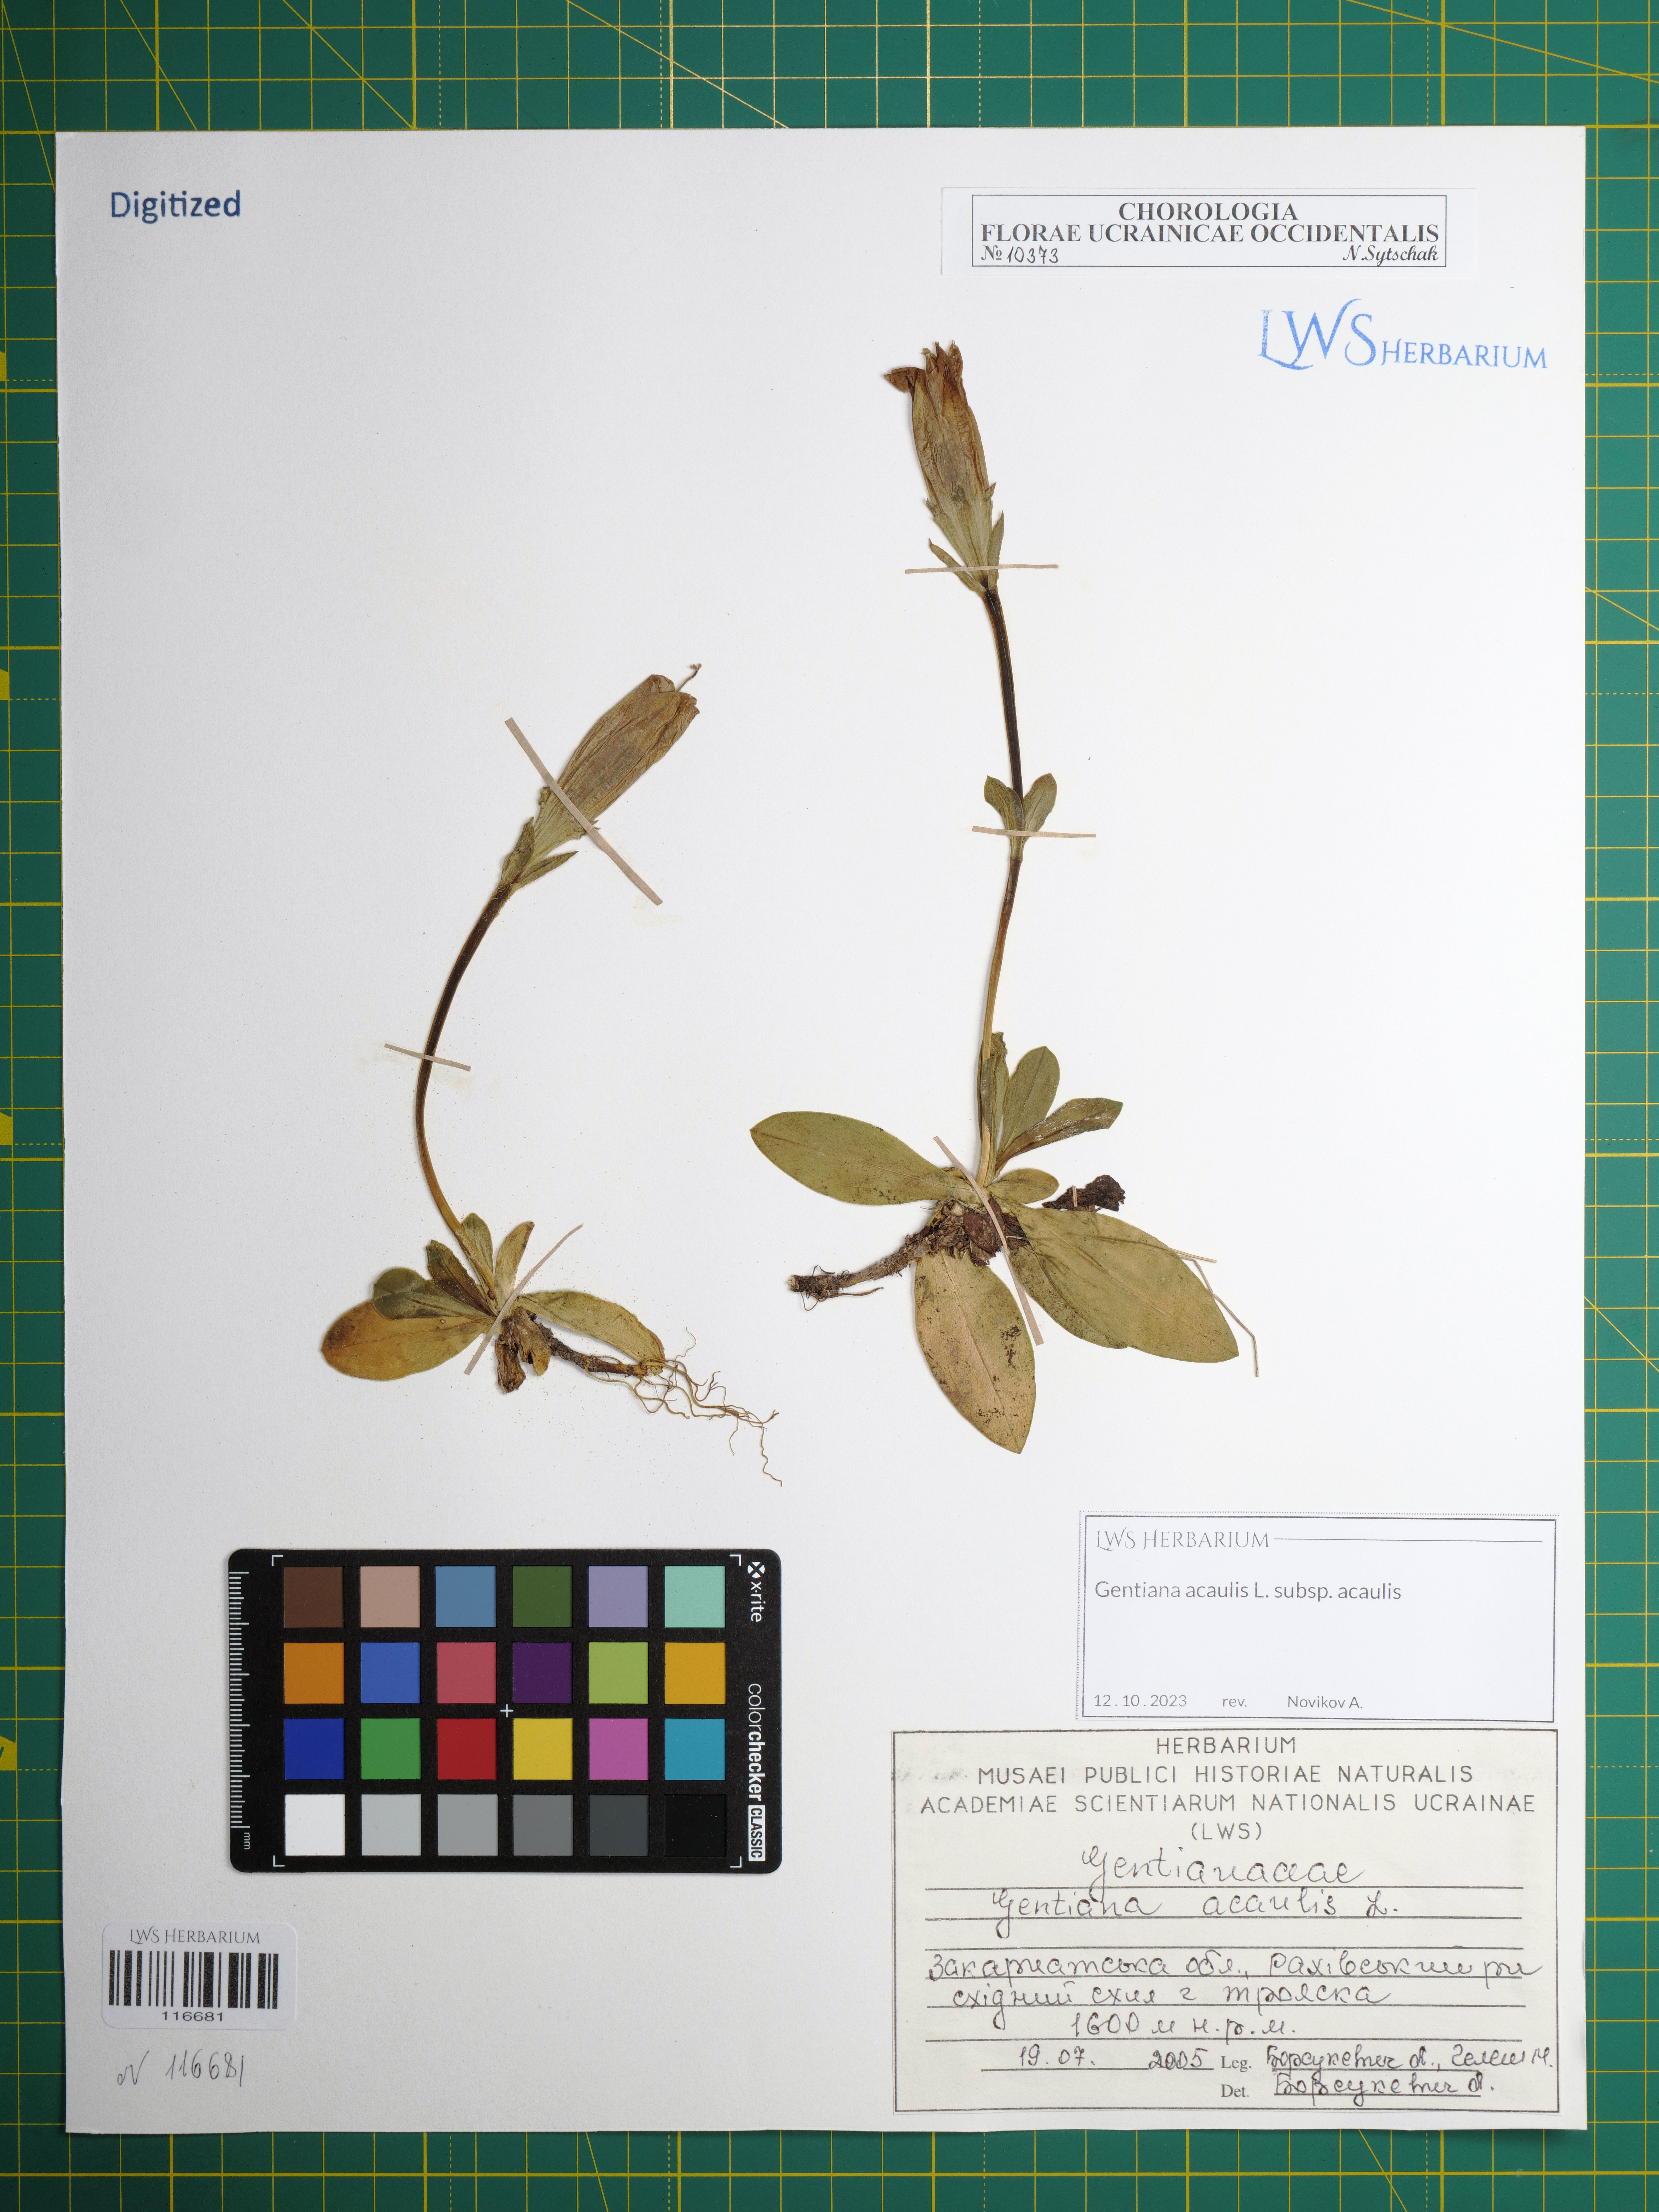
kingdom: Plantae
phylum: Tracheophyta
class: Magnoliopsida
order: Gentianales
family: Gentianaceae
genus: Gentiana
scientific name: Gentiana acaulis
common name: Trumpet gentian
